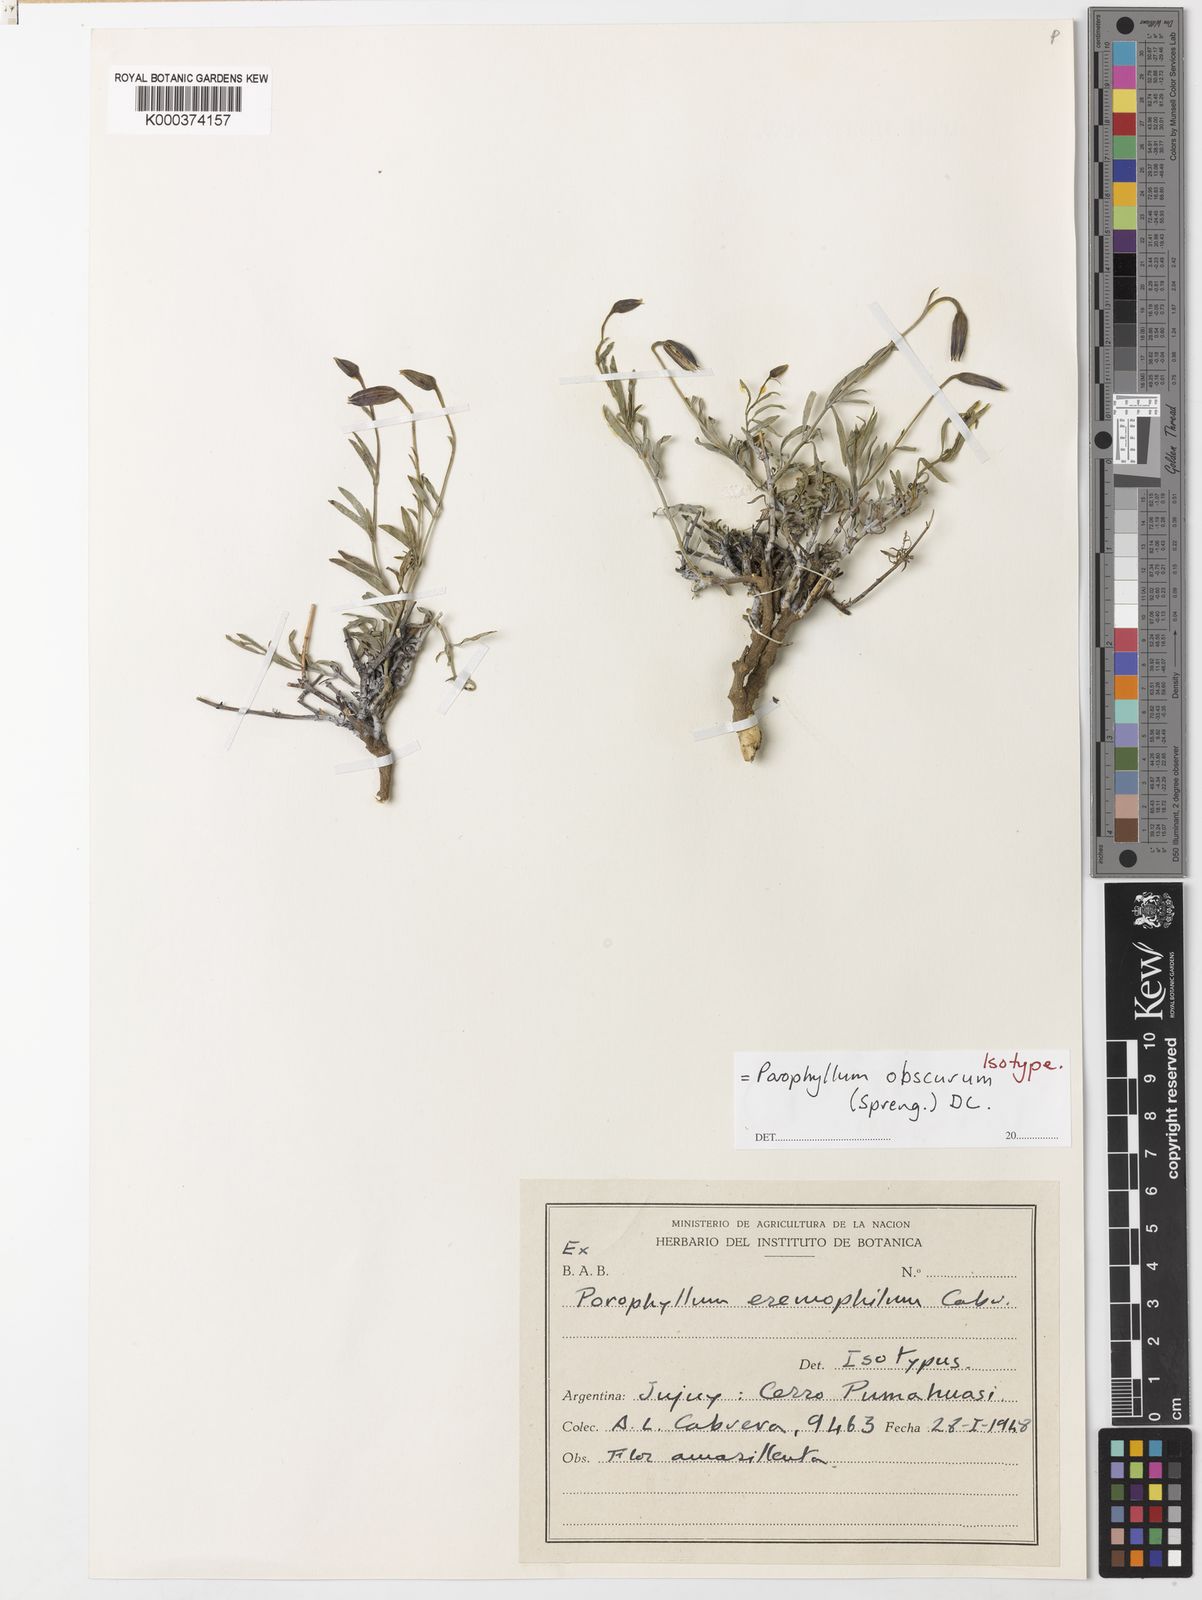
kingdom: Plantae
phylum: Tracheophyta
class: Magnoliopsida
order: Asterales
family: Asteraceae
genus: Porophyllum
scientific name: Porophyllum obscurum
